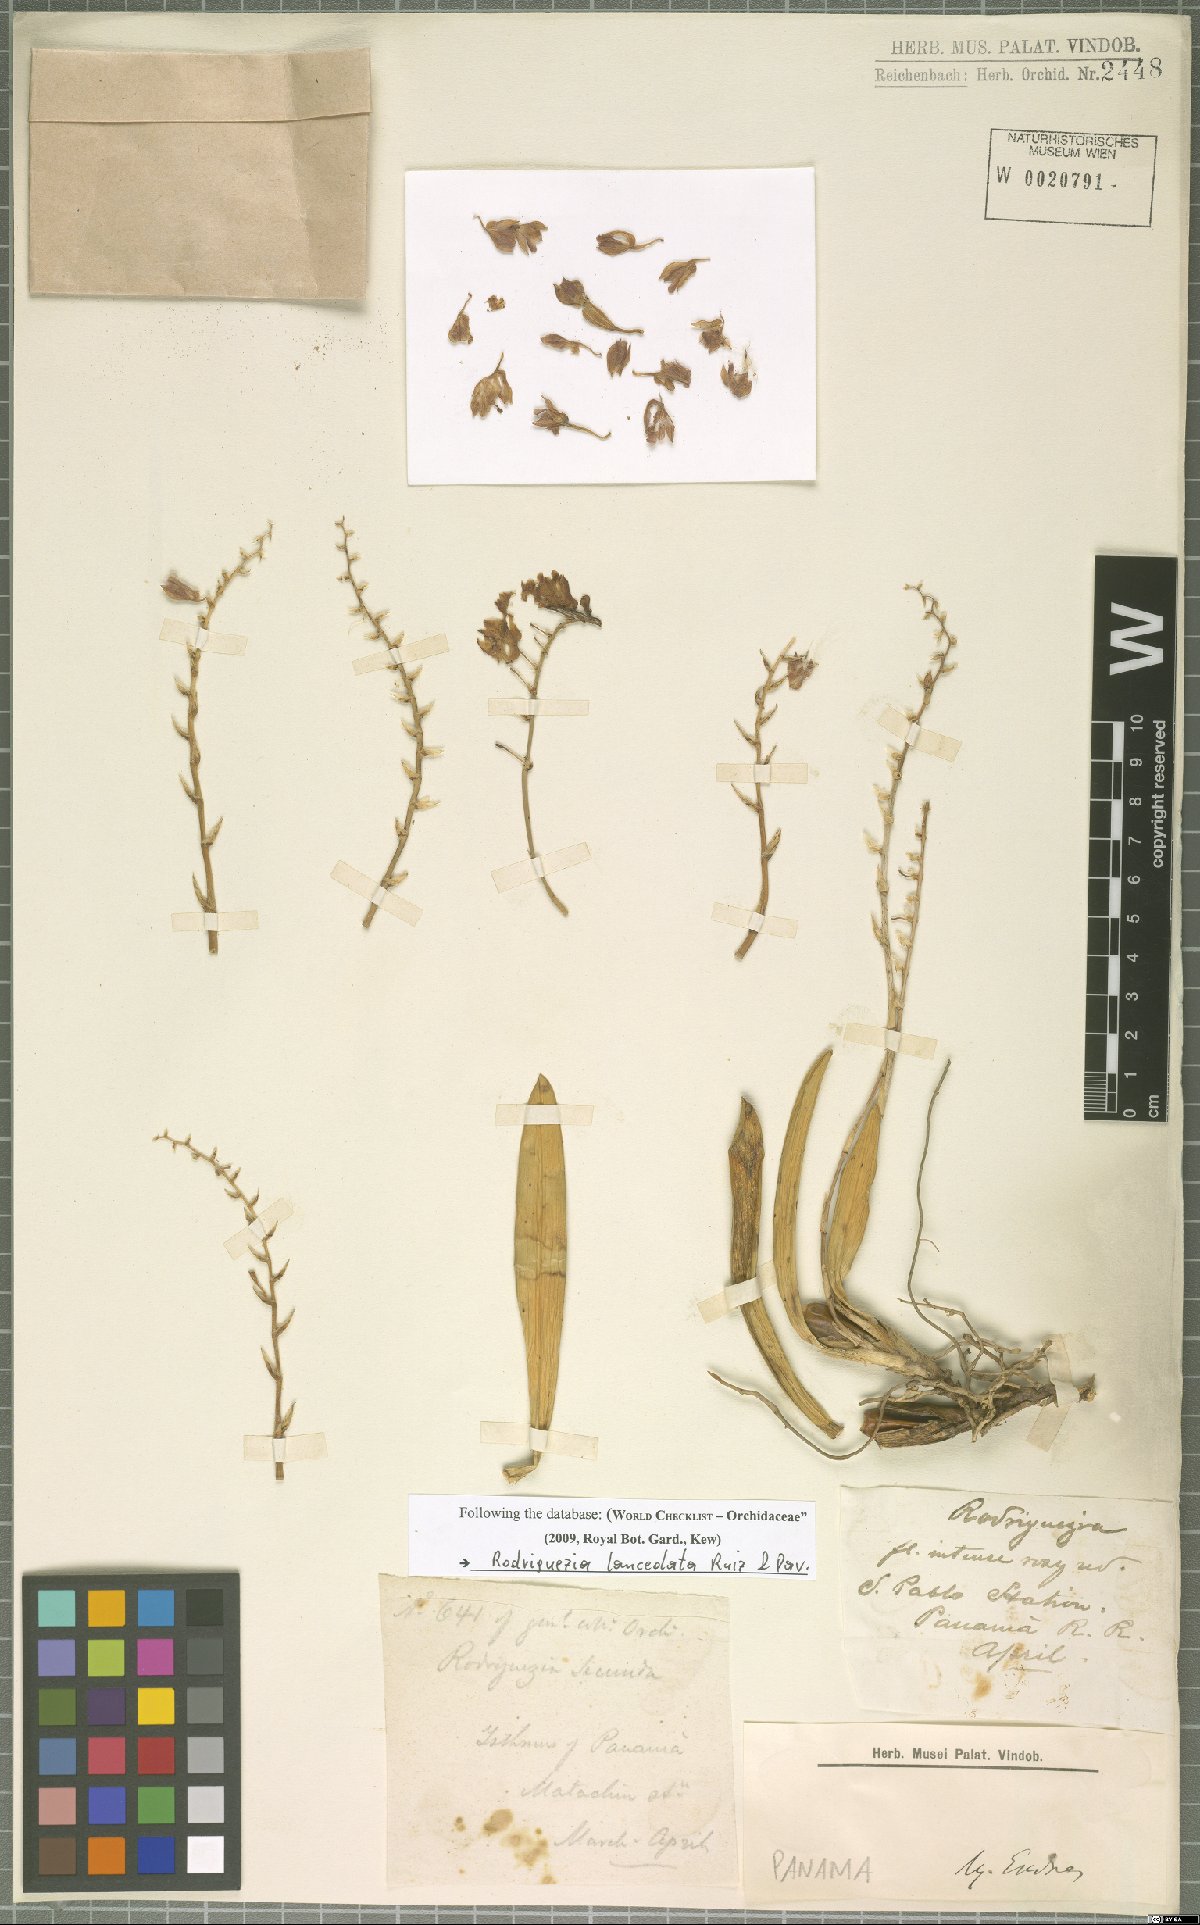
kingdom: Plantae
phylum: Tracheophyta
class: Liliopsida
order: Asparagales
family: Orchidaceae
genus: Rodriguezia
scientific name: Rodriguezia lanceolata
